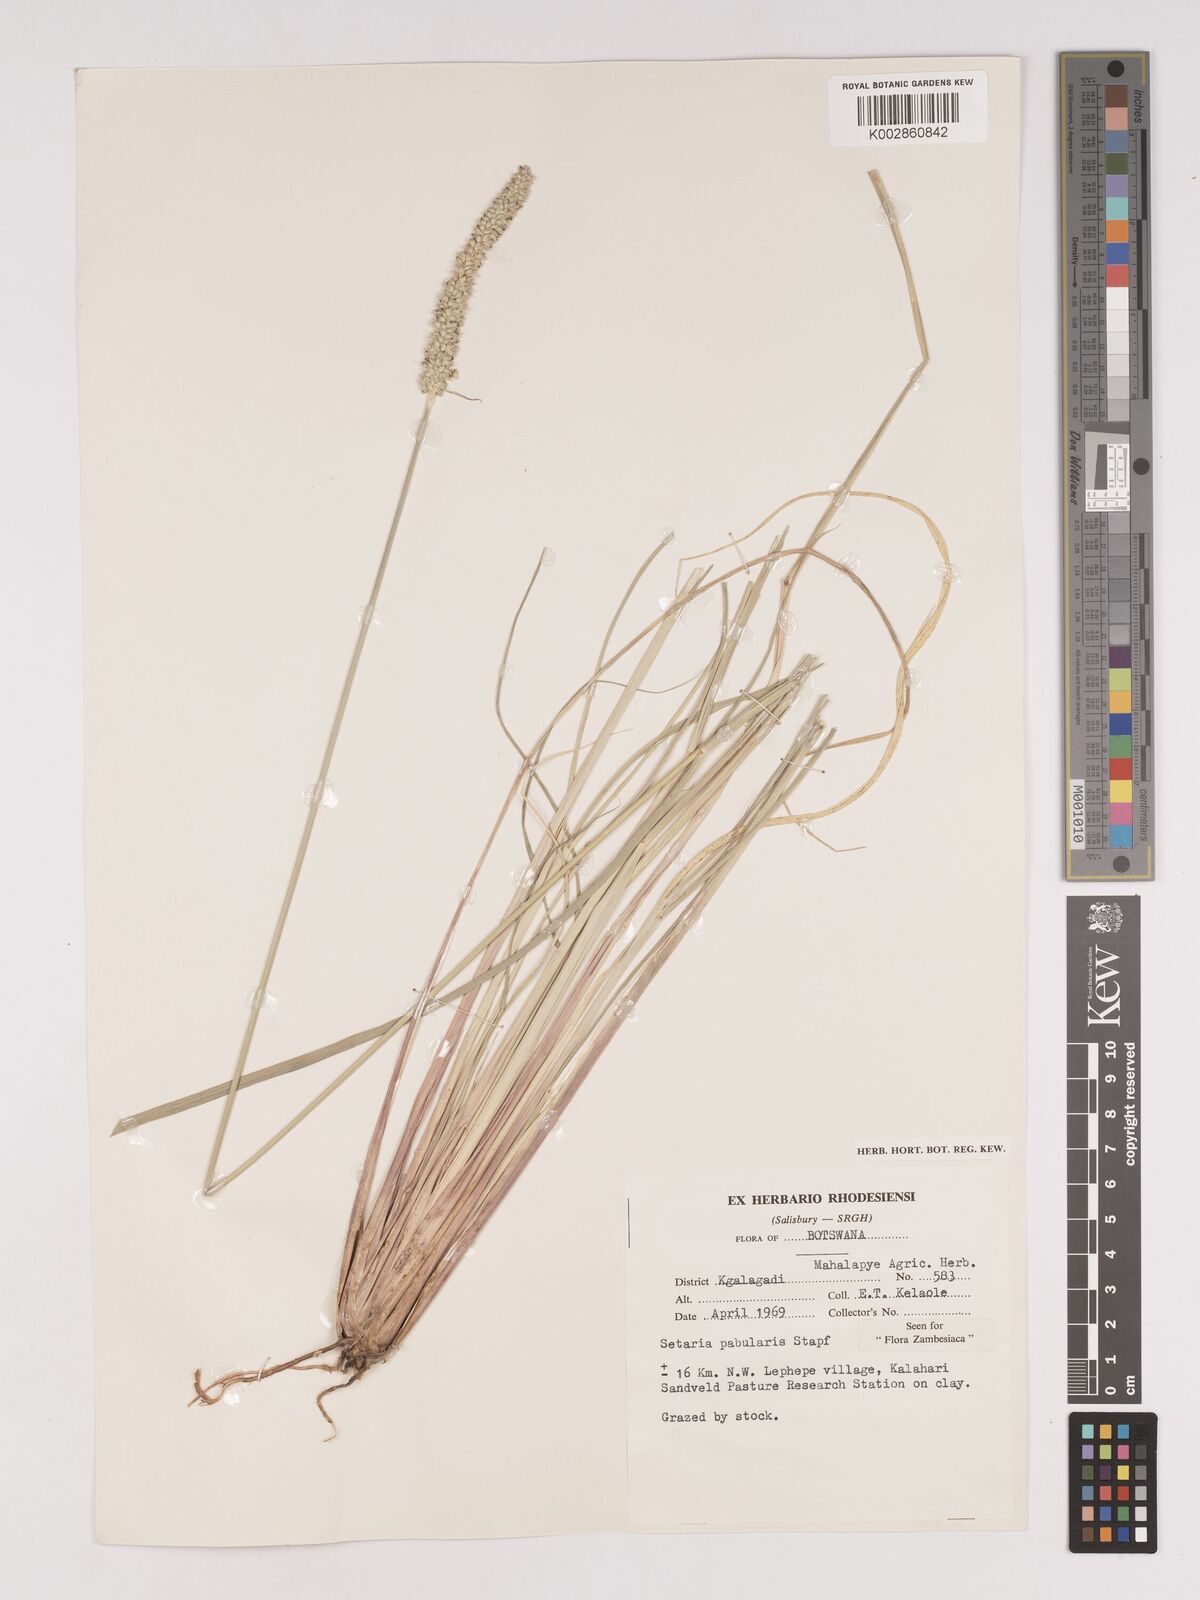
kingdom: Plantae
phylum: Tracheophyta
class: Liliopsida
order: Poales
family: Poaceae
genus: Setaria
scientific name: Setaria incrassata
